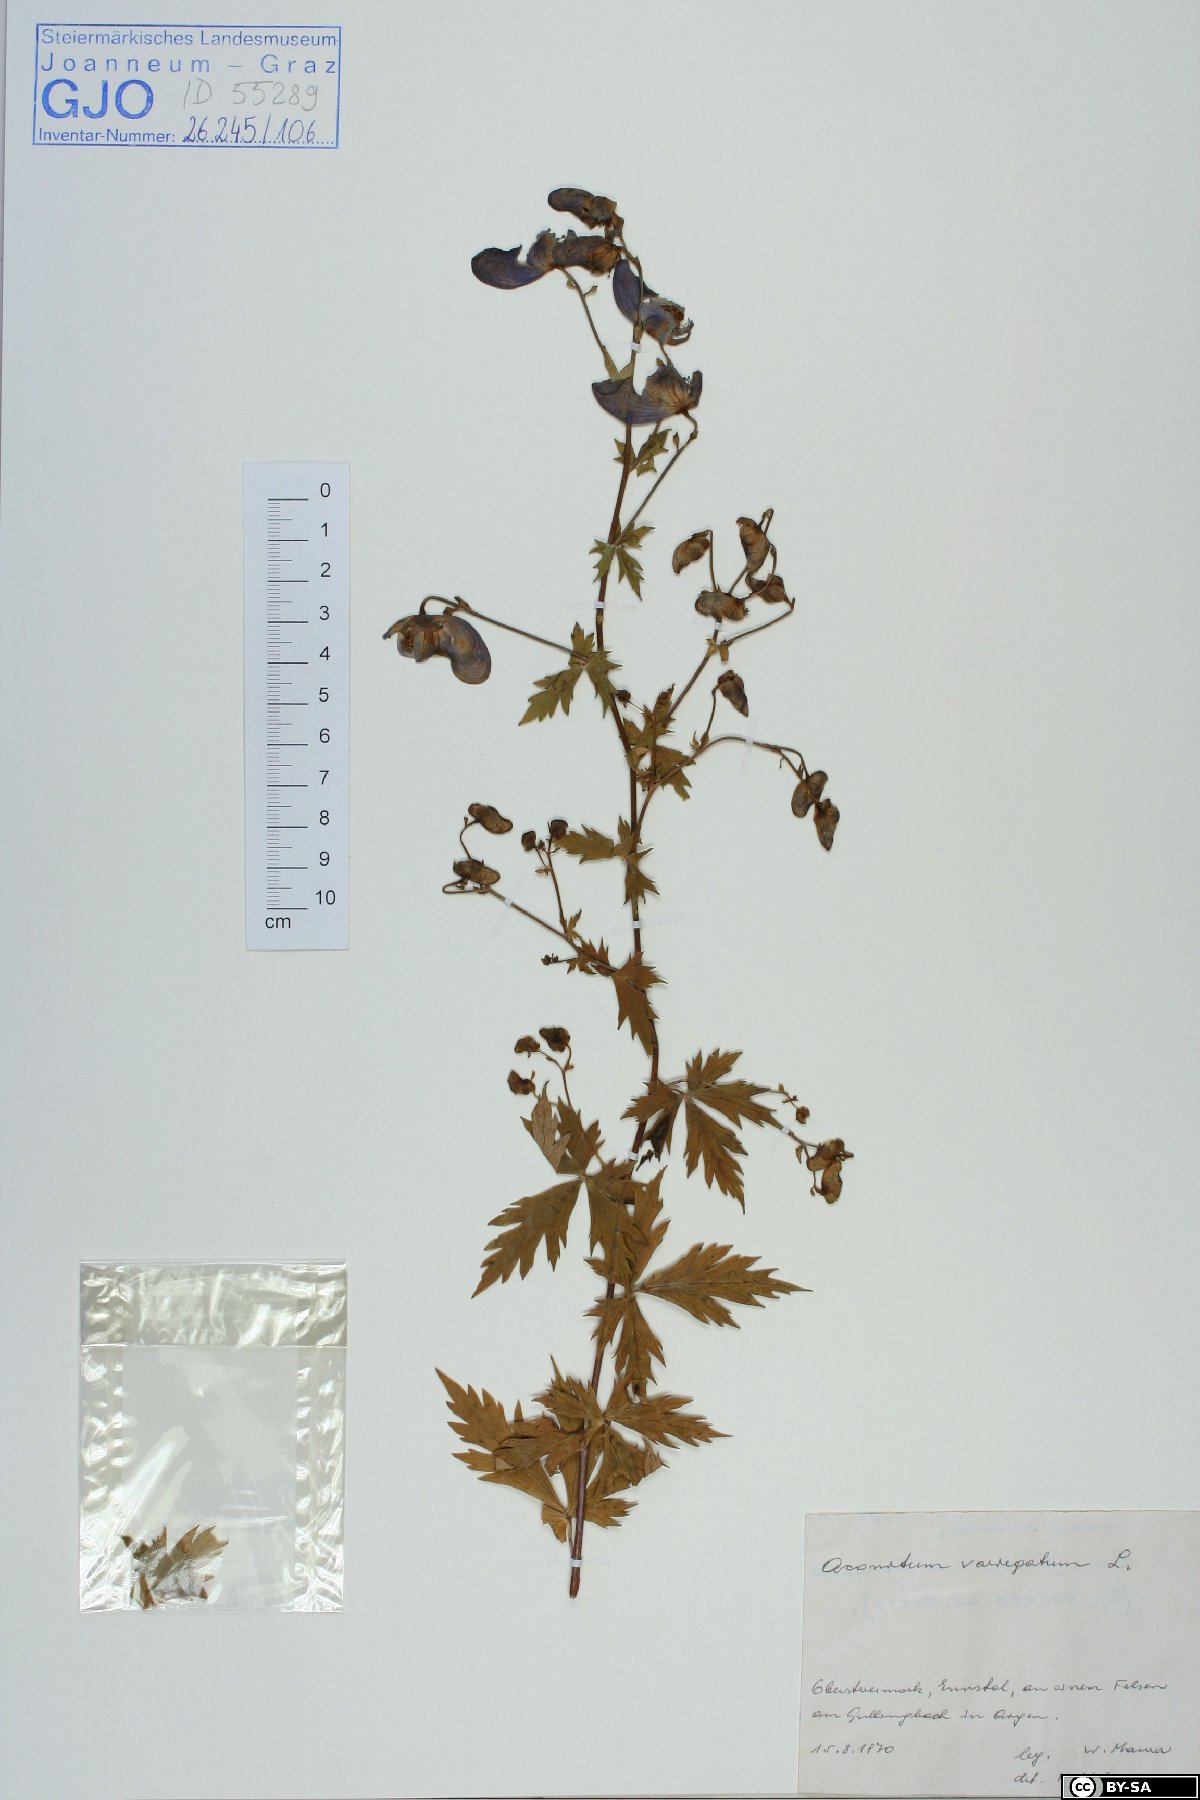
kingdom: Plantae
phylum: Tracheophyta
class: Magnoliopsida
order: Ranunculales
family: Ranunculaceae
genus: Aconitum
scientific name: Aconitum variegatum
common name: Manchurian monkshood
